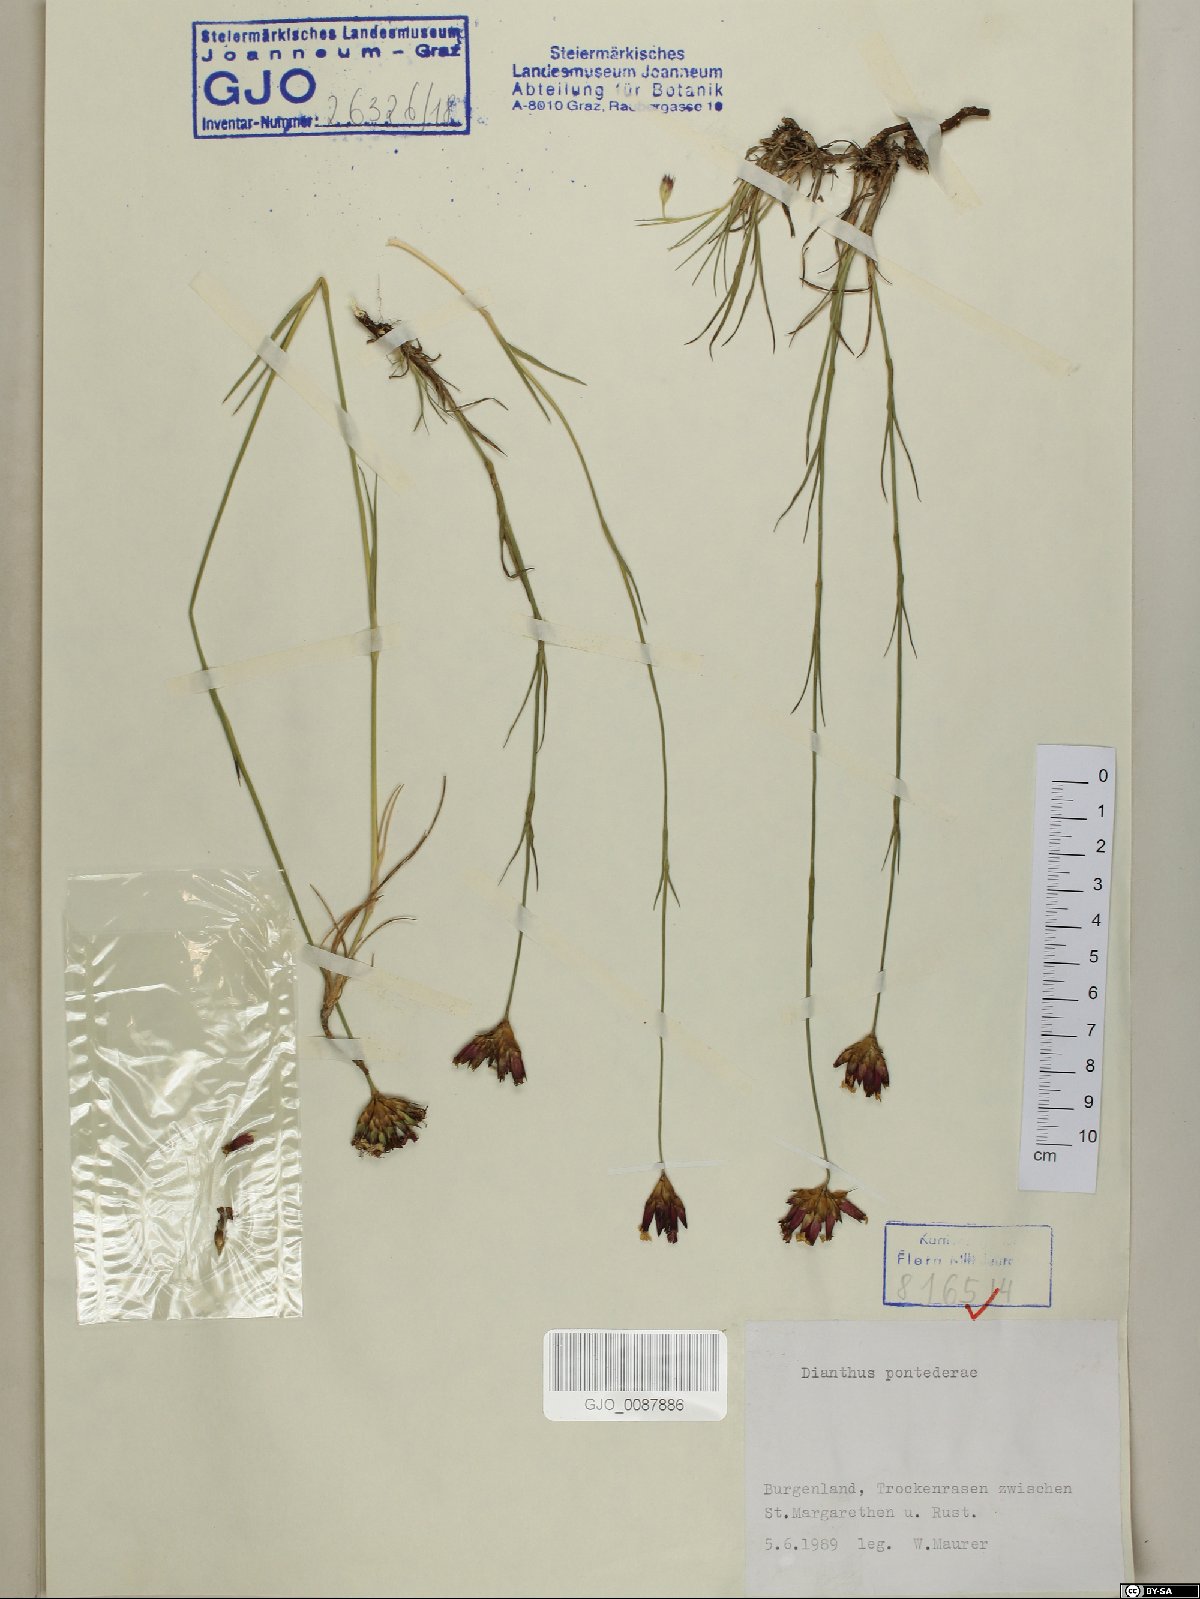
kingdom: Plantae
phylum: Tracheophyta
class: Magnoliopsida
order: Caryophyllales
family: Caryophyllaceae
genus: Dianthus
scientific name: Dianthus pontederae
